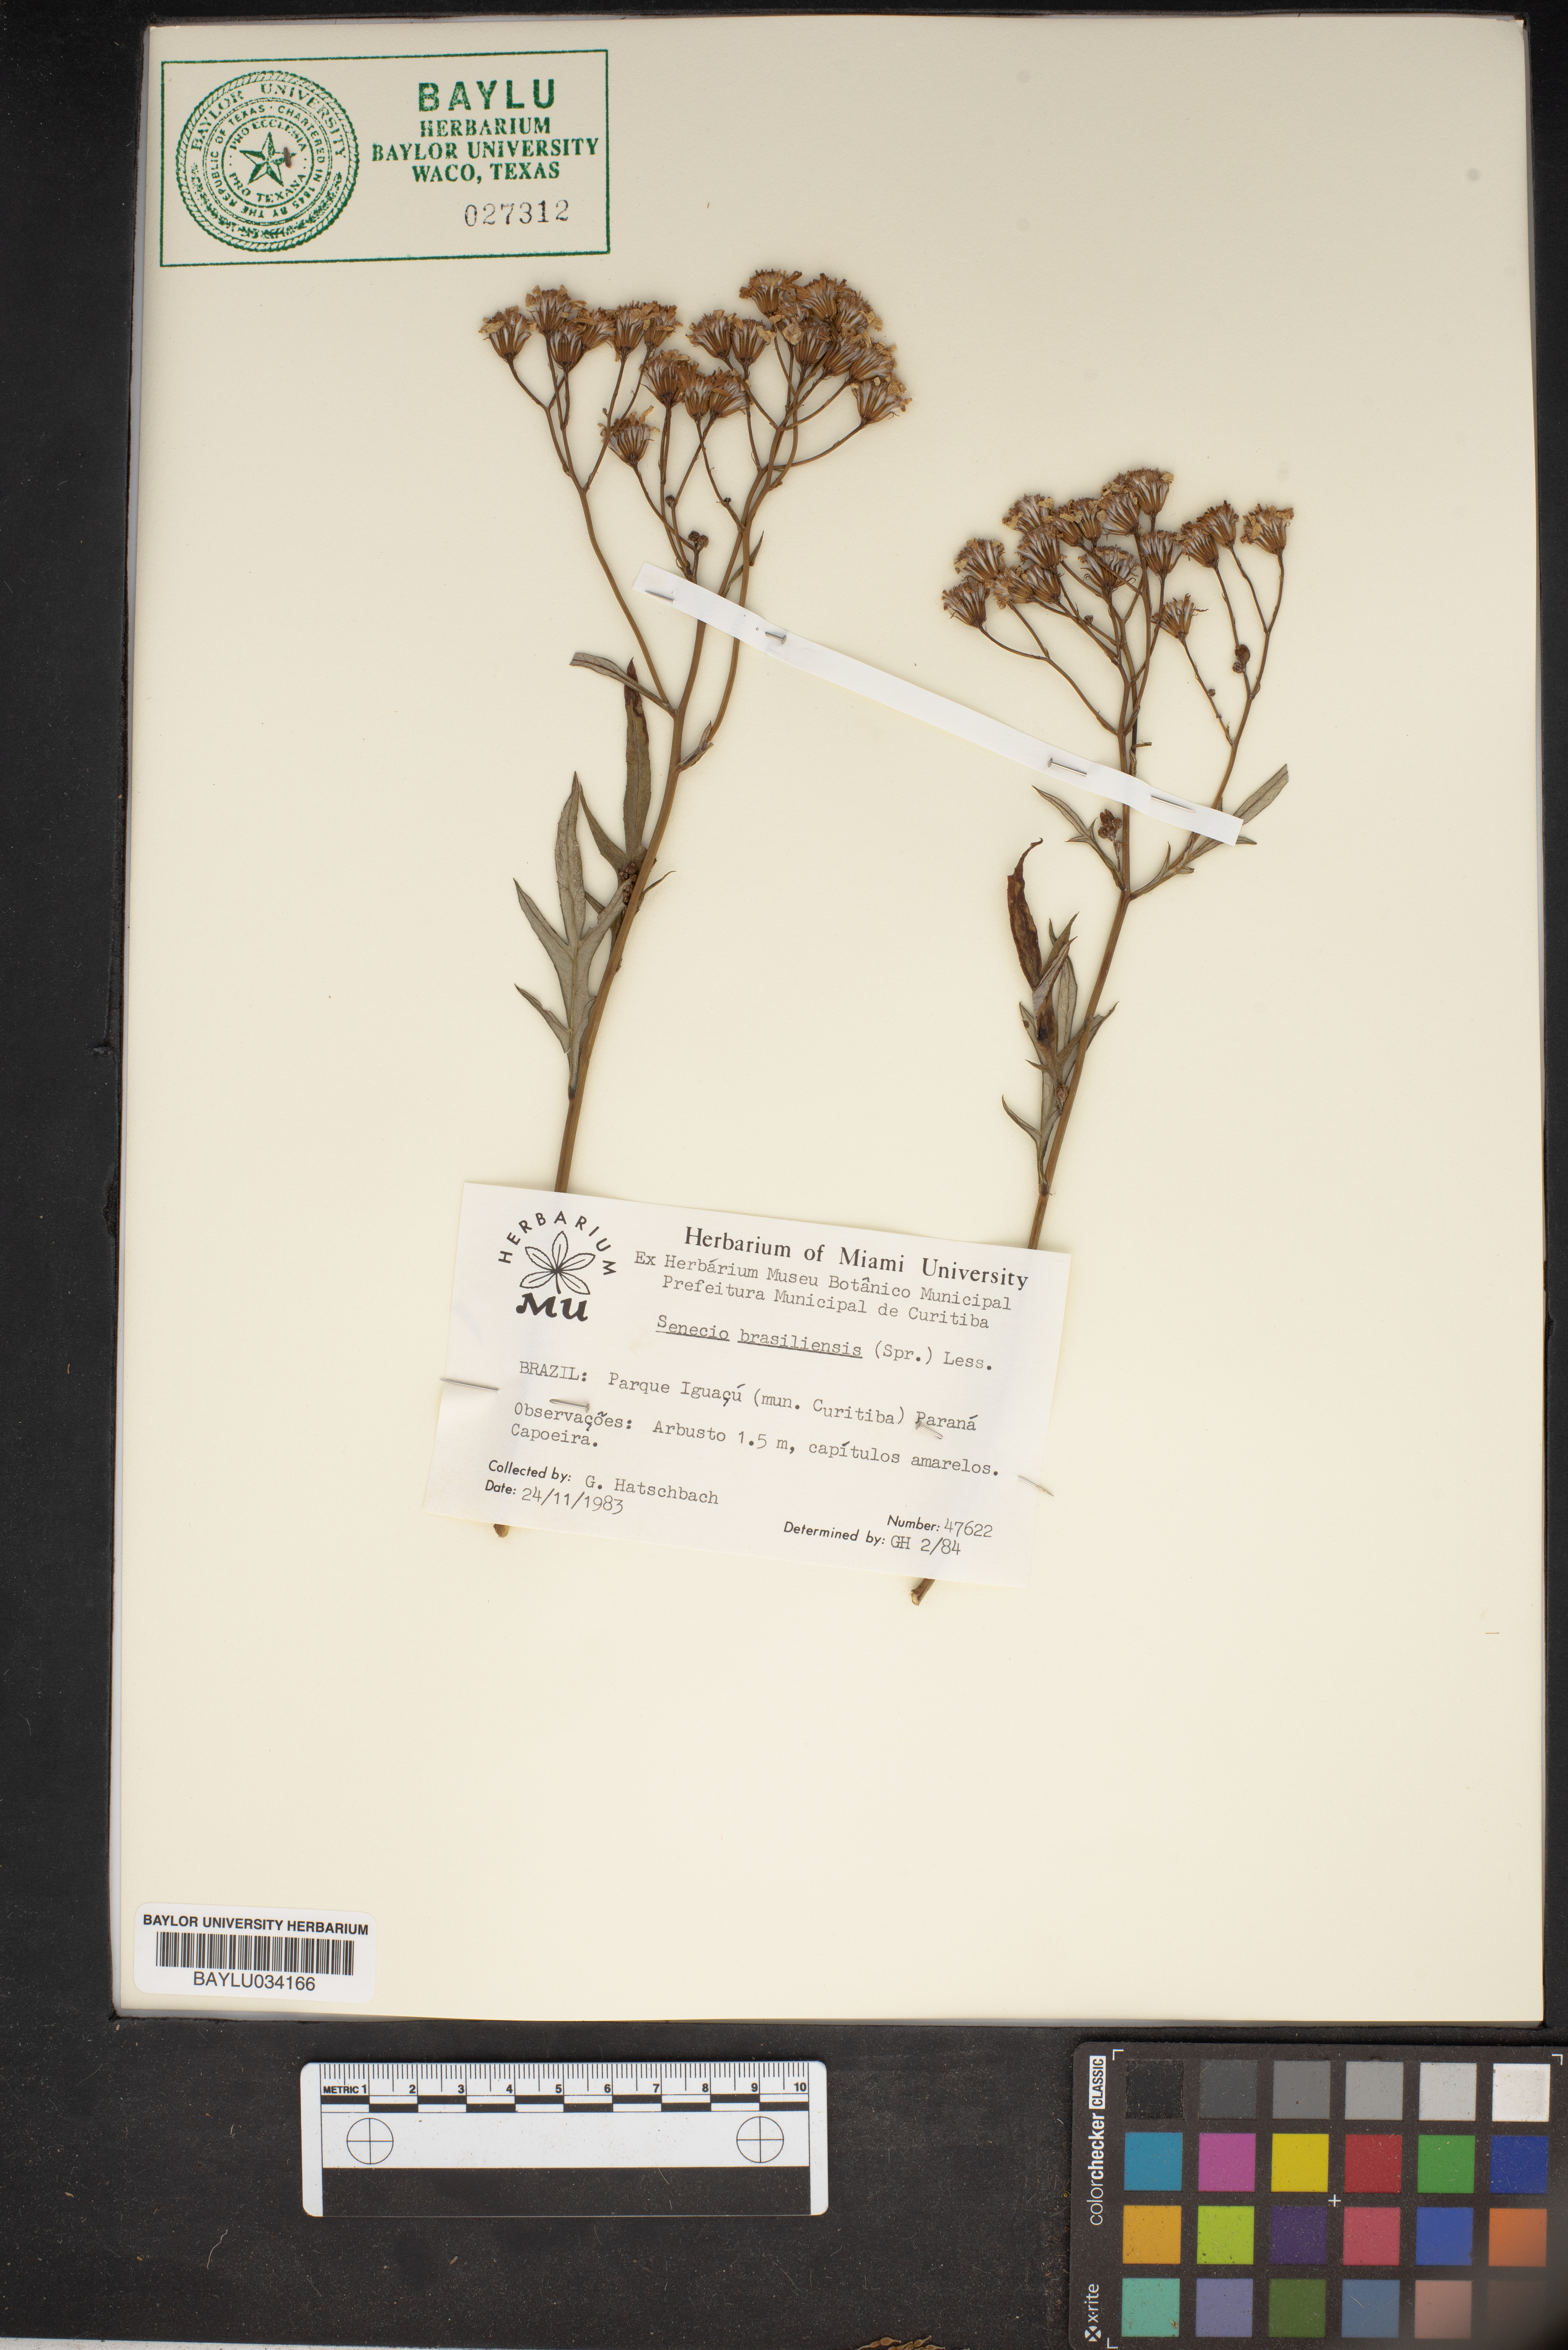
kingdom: Plantae
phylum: Tracheophyta
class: Magnoliopsida
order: Asterales
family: Asteraceae
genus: Senecio
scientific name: Senecio brasiliensis
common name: Hemp-leaf ragwort
